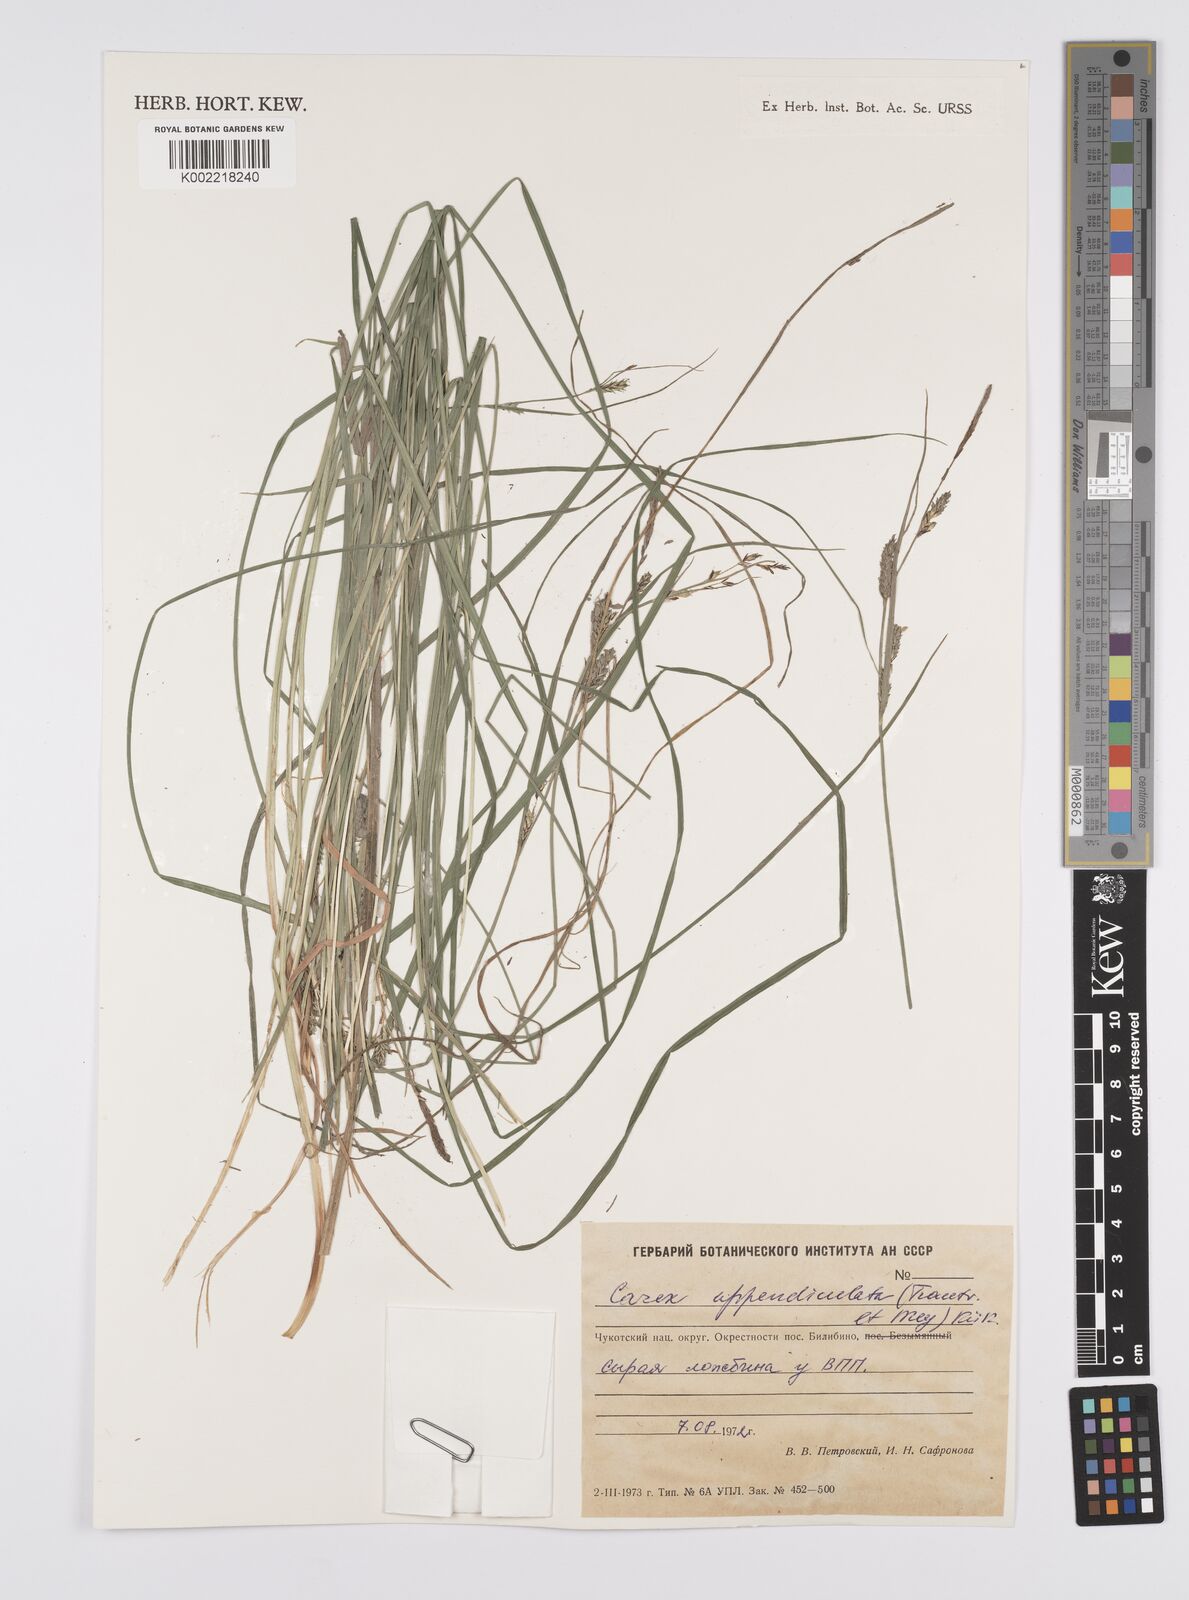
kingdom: Plantae
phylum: Tracheophyta
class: Liliopsida
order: Poales
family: Cyperaceae
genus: Carex
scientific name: Carex appendiculata
